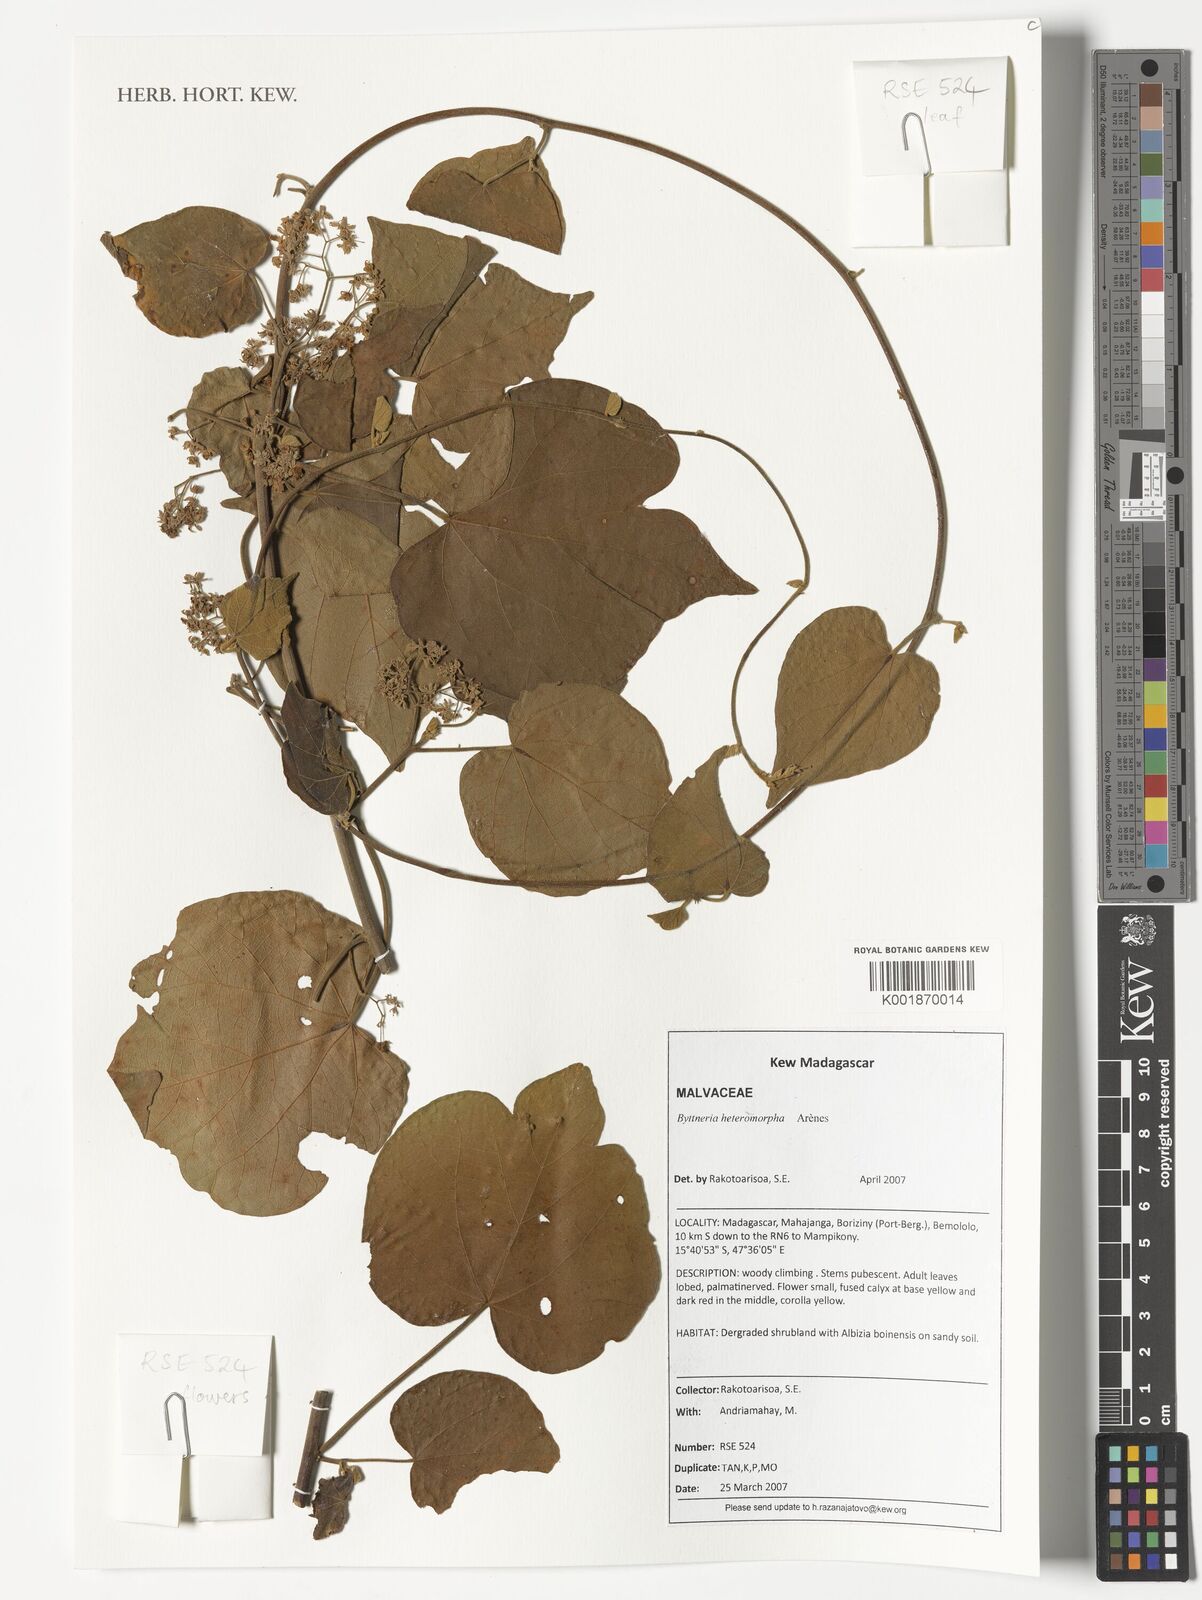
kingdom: Plantae
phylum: Tracheophyta
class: Magnoliopsida
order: Malvales
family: Malvaceae
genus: Byttneria
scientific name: Byttneria heteromorpha
